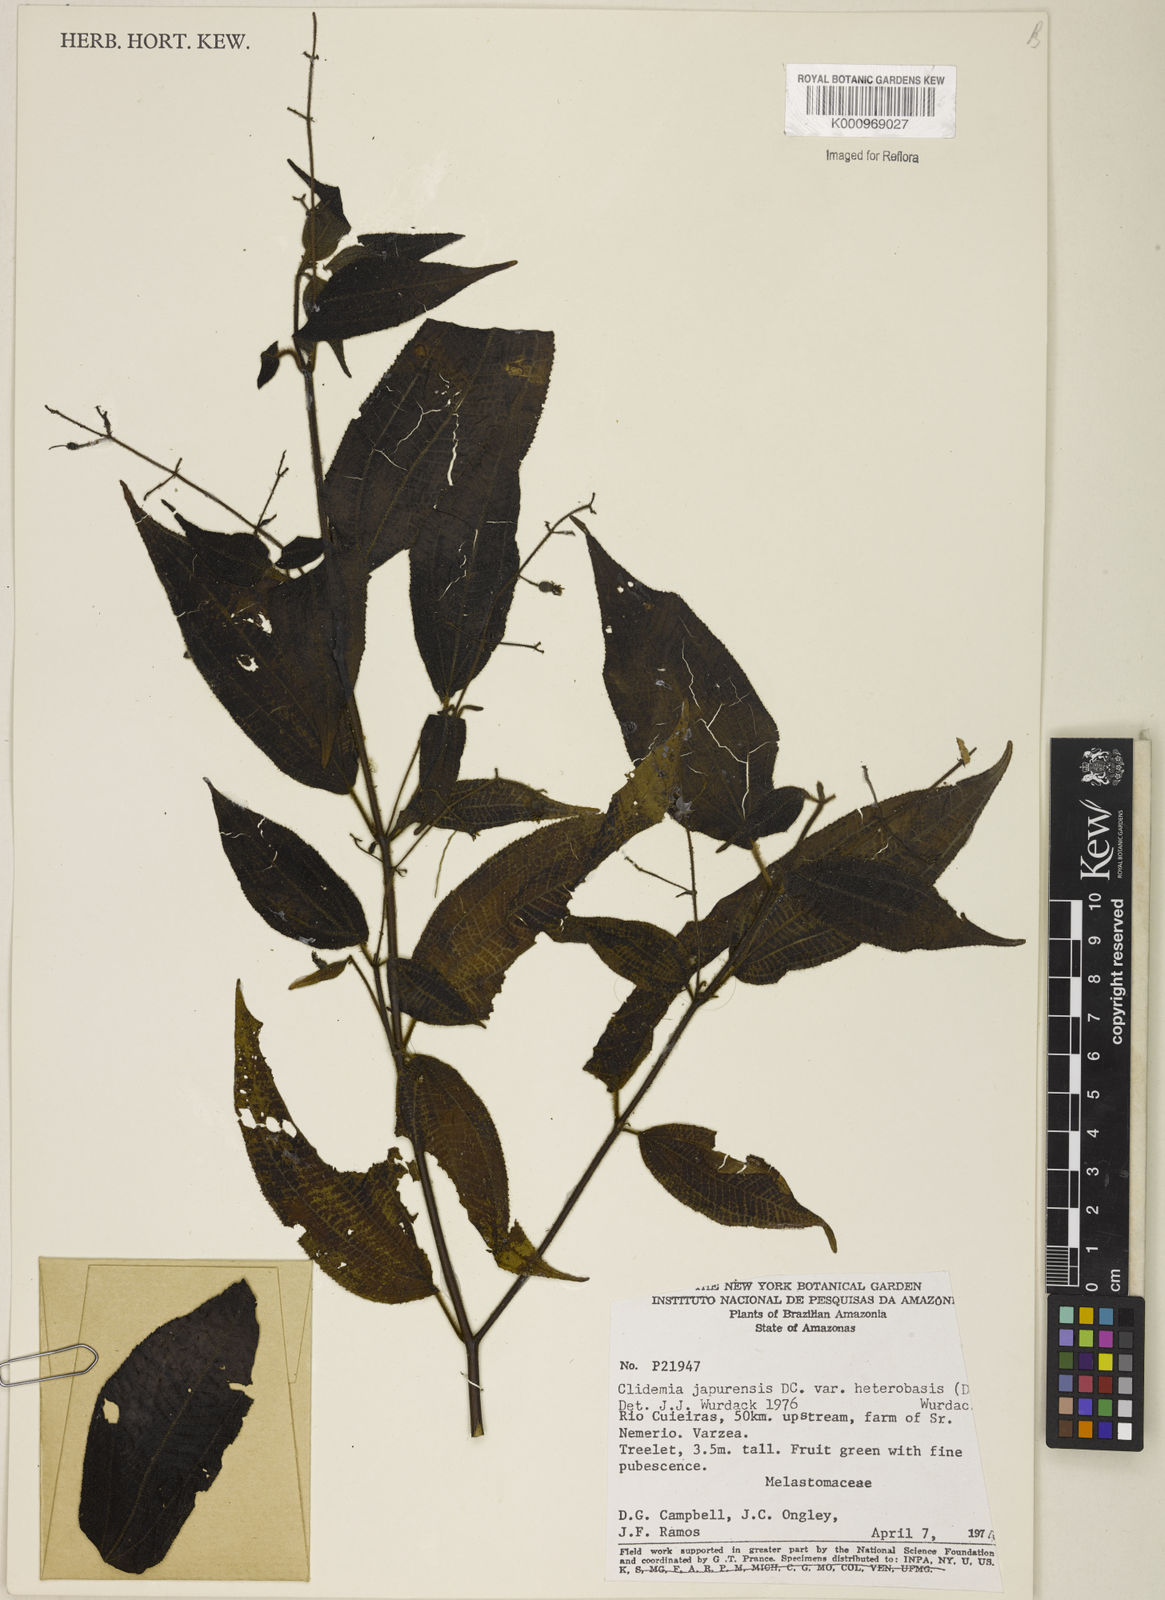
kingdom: Plantae
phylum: Tracheophyta
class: Magnoliopsida
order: Myrtales
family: Melastomataceae
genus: Miconia
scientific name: Miconia heteroclita
